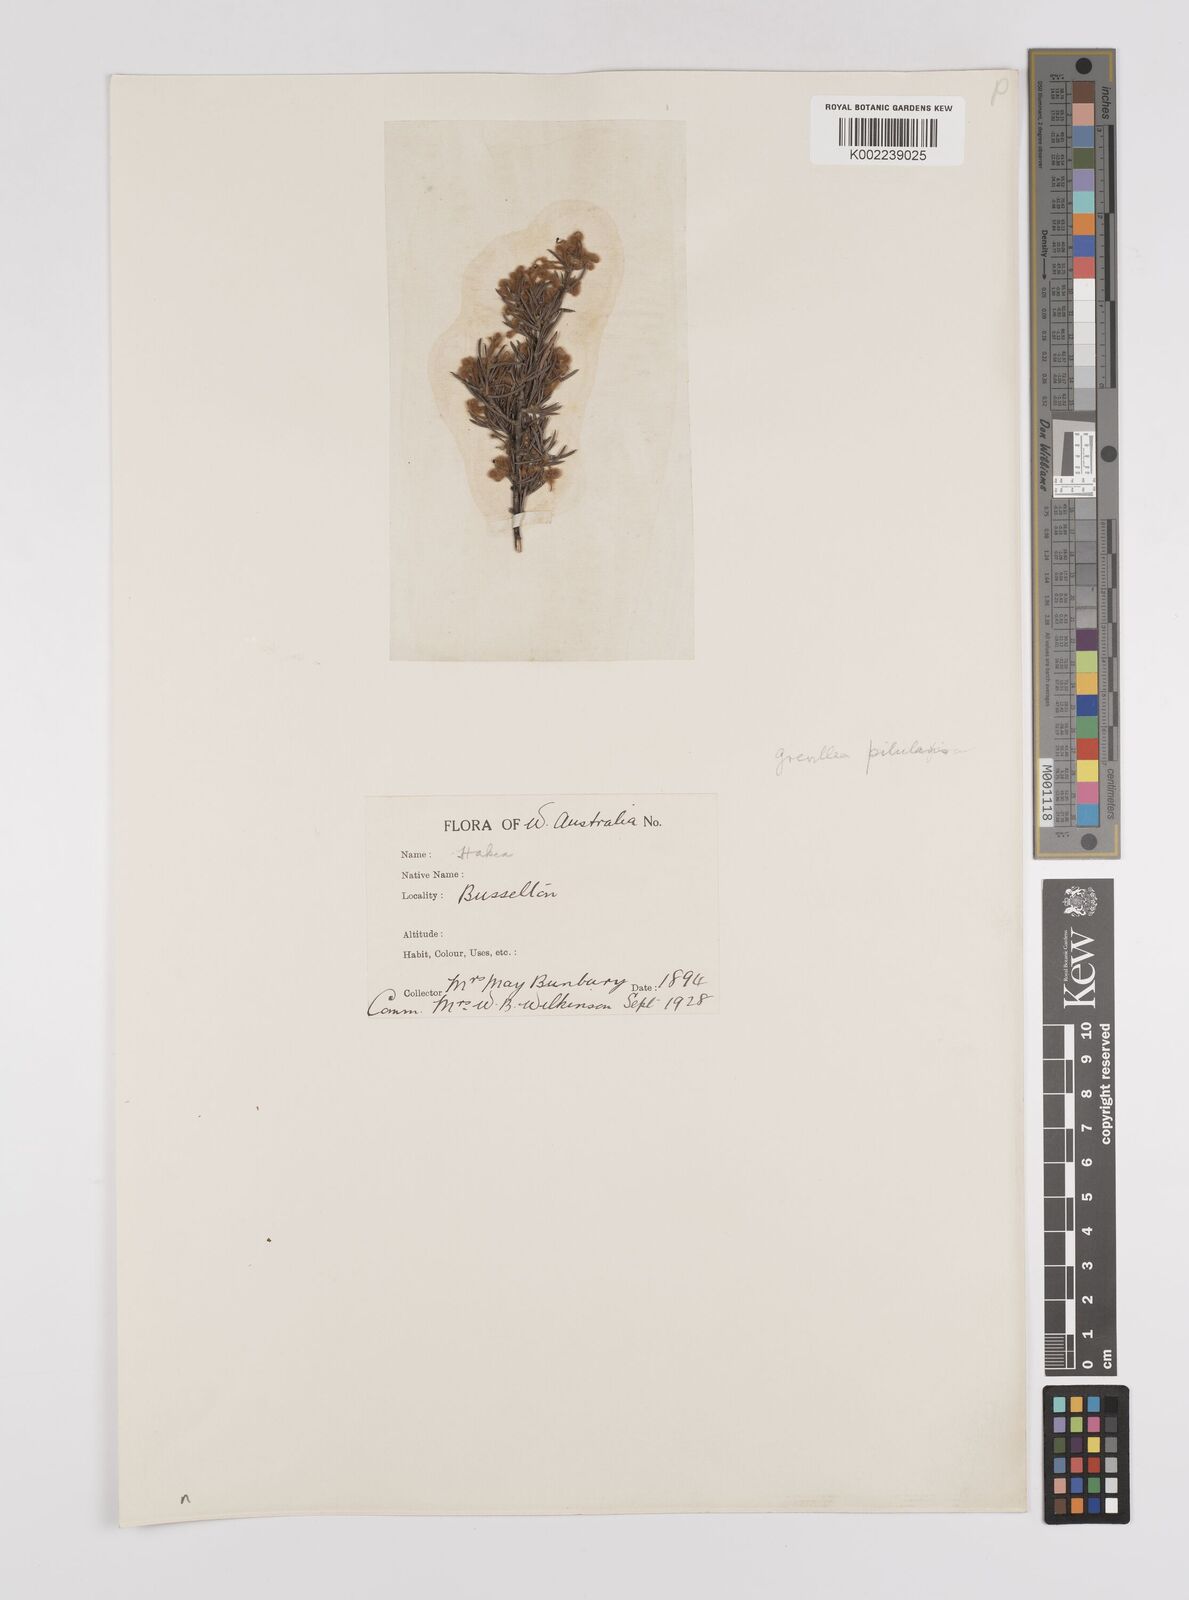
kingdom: Plantae
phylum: Tracheophyta
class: Magnoliopsida
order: Proteales
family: Proteaceae
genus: Grevillea
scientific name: Grevillea pilulifera
